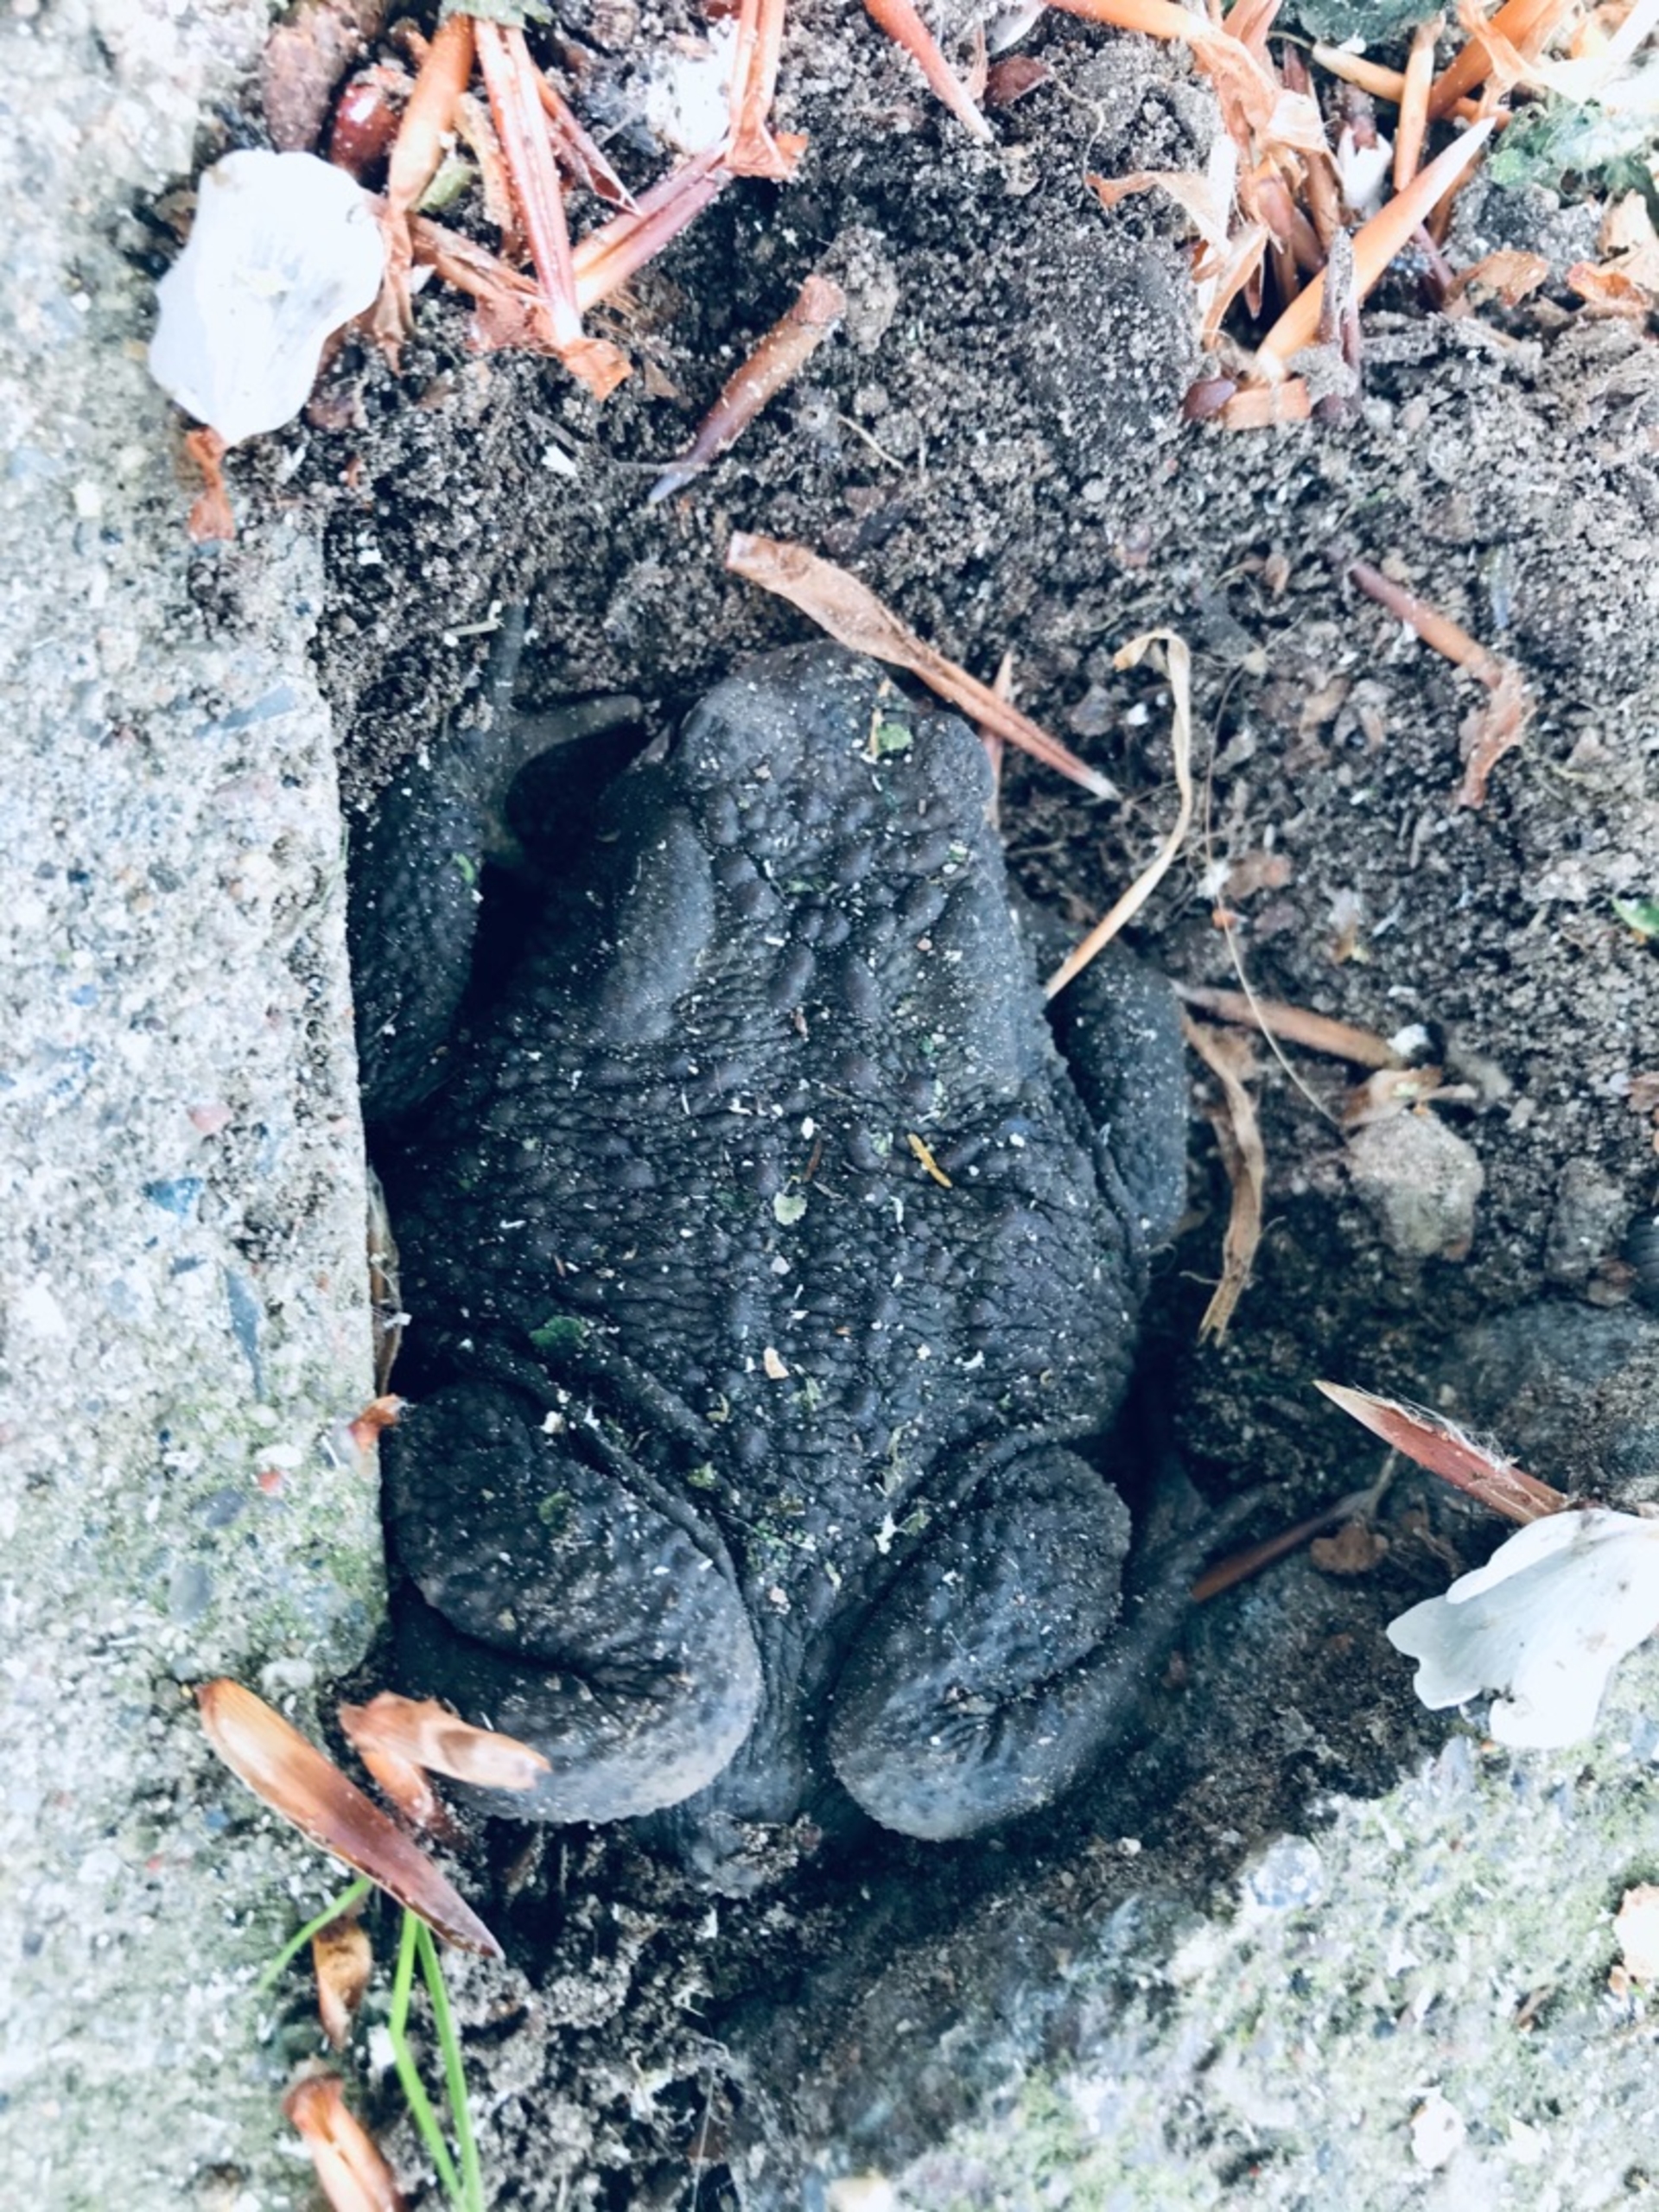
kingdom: Animalia
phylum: Chordata
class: Amphibia
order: Anura
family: Bufonidae
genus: Bufo
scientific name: Bufo bufo
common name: Skrubtudse
